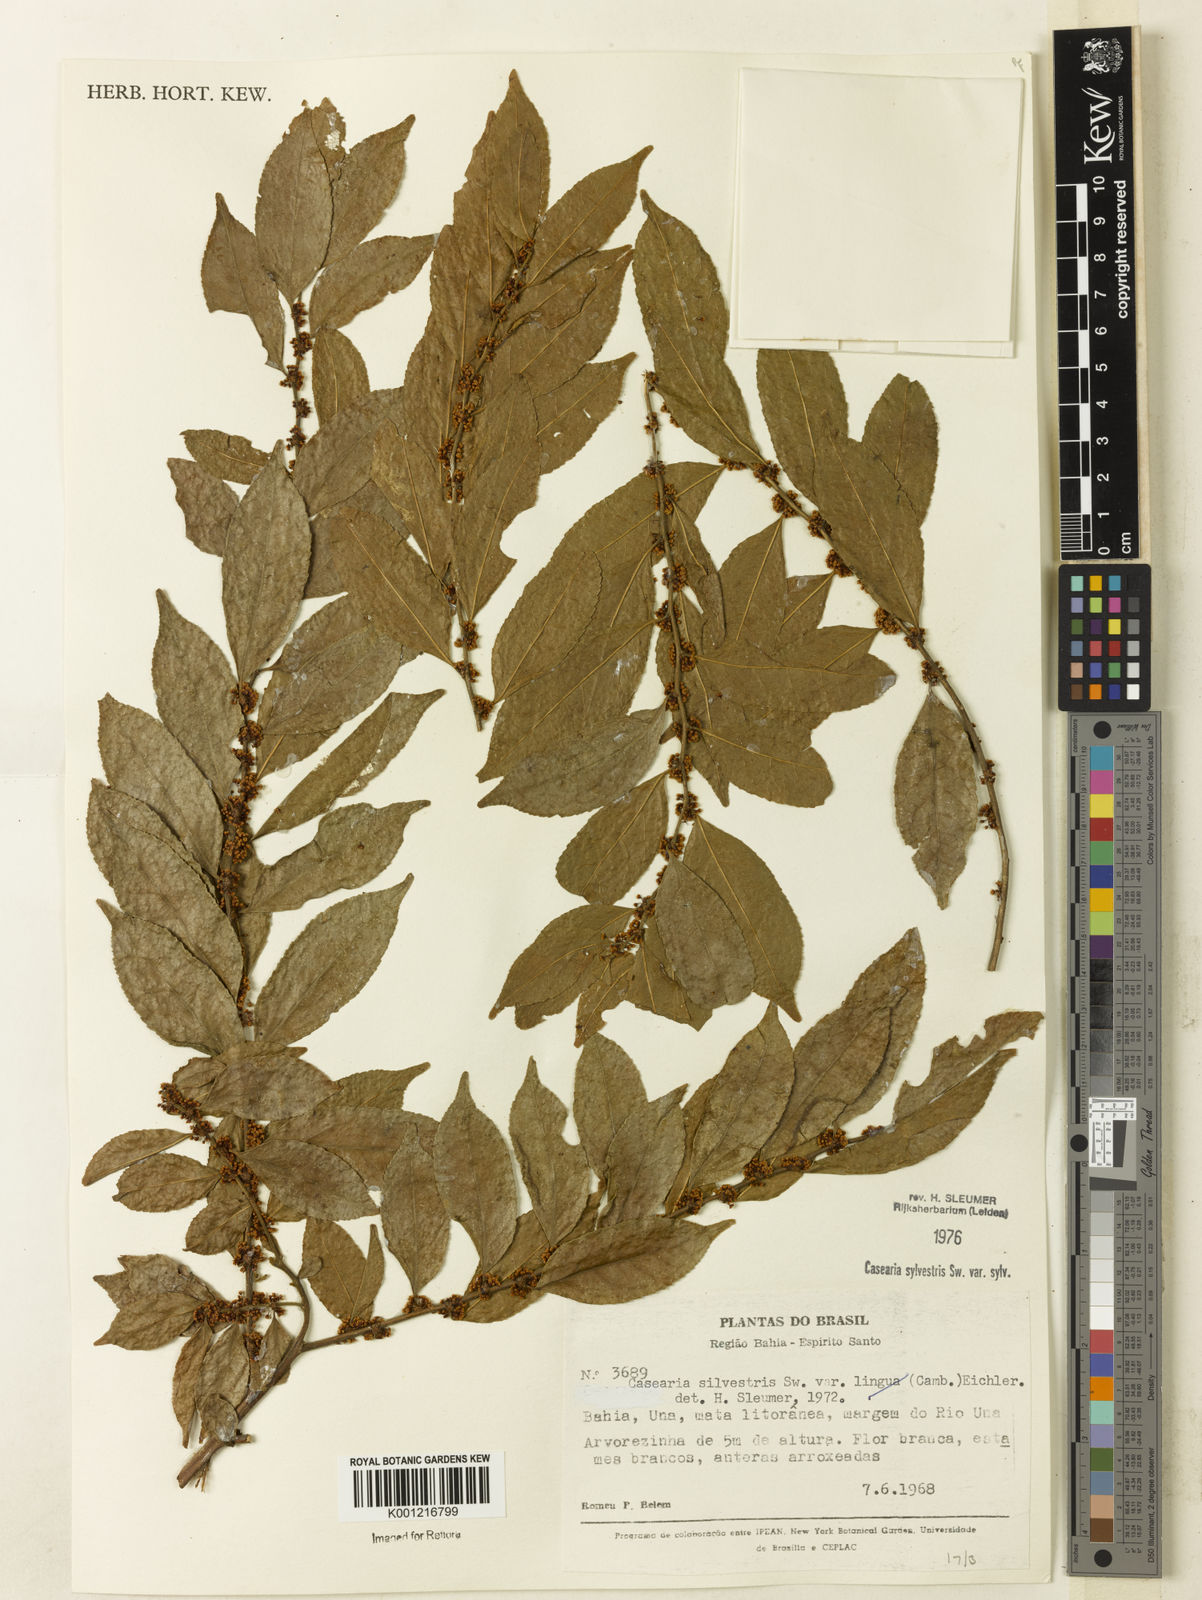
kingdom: Plantae
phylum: Tracheophyta
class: Magnoliopsida
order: Malpighiales
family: Salicaceae
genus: Casearia
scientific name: Casearia sylvestris
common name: Wild sage
